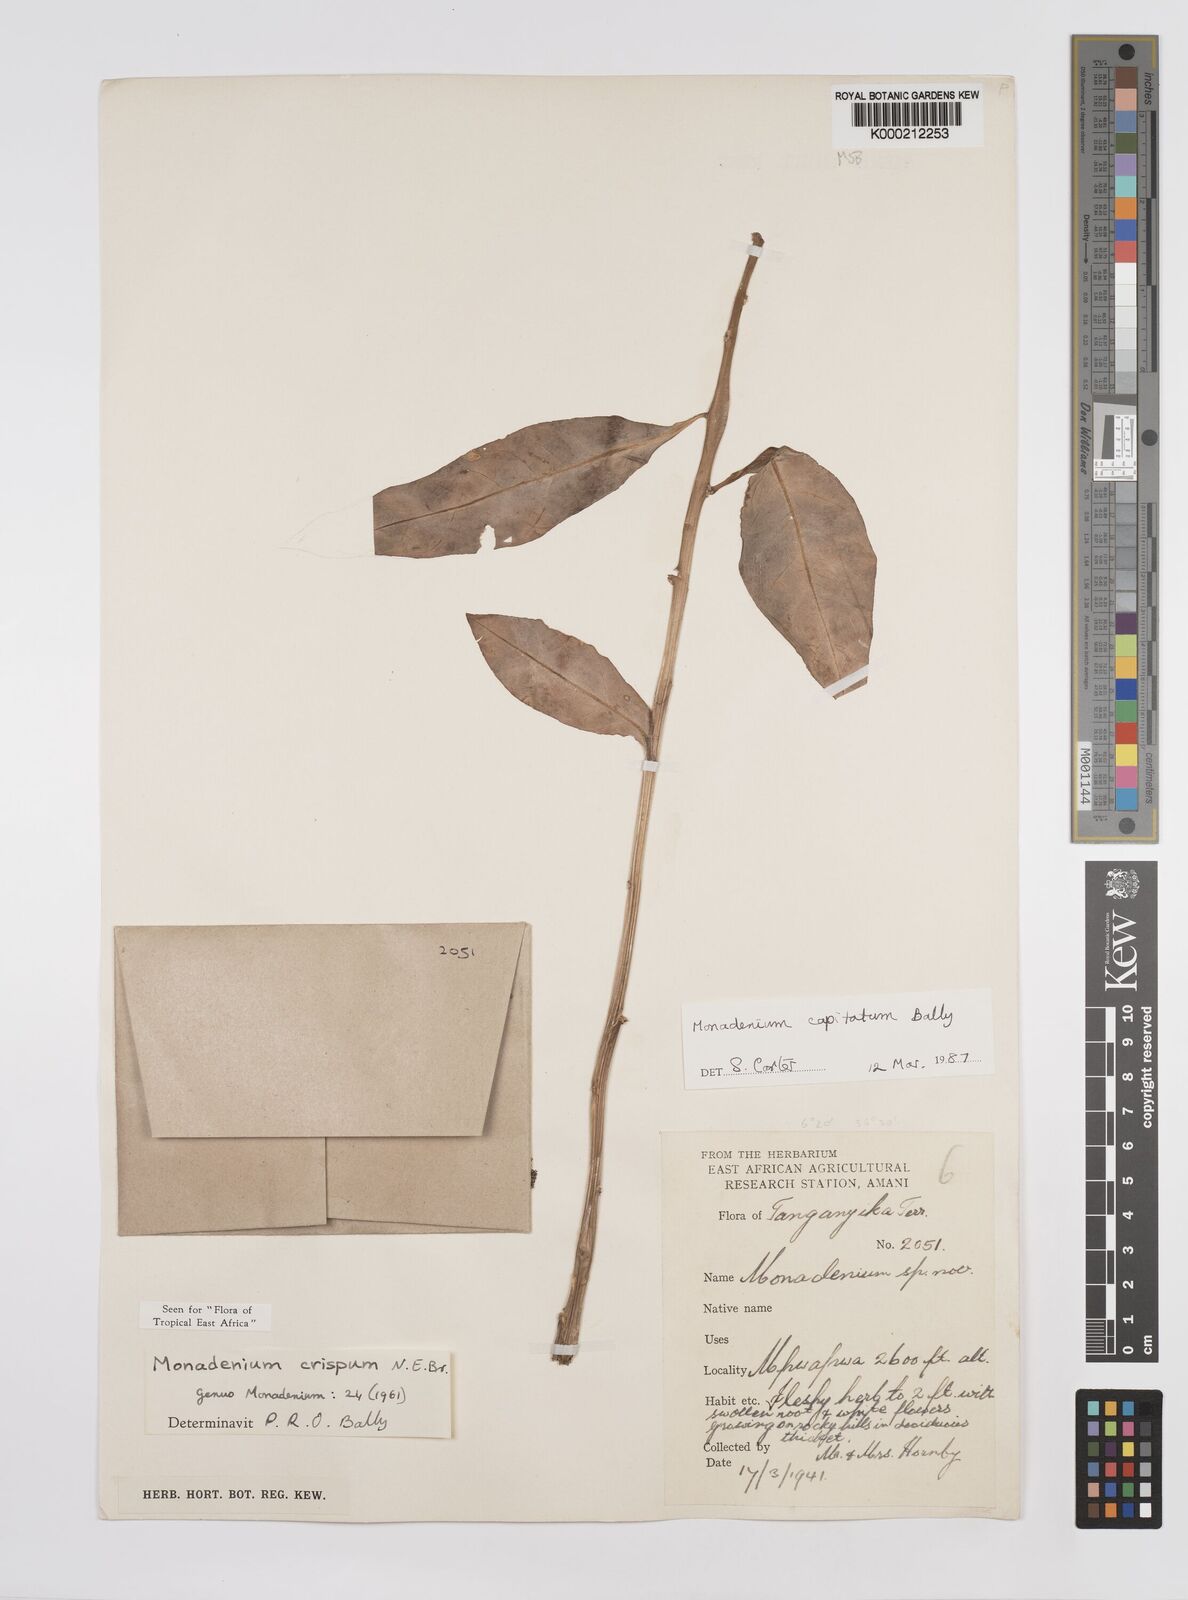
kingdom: Plantae
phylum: Tracheophyta
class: Magnoliopsida
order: Malpighiales
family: Euphorbiaceae
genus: Euphorbia
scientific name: Euphorbia neocapitata
